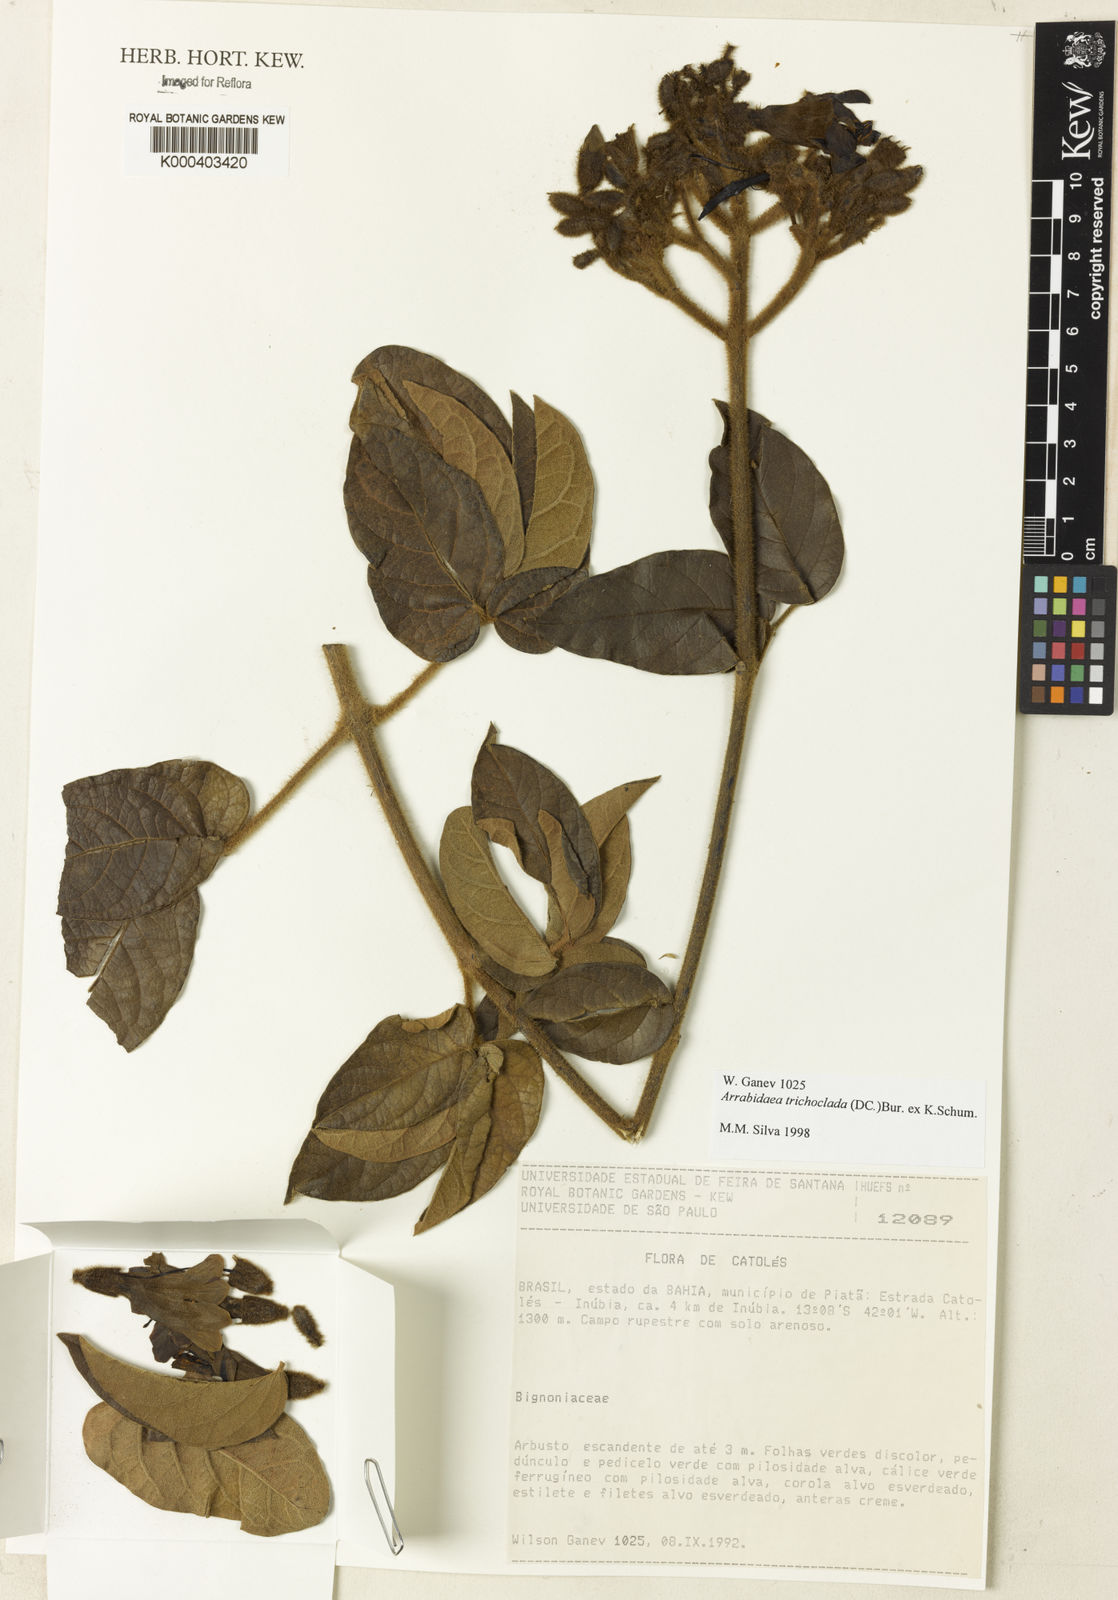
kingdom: Plantae
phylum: Tracheophyta
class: Magnoliopsida
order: Lamiales
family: Bignoniaceae
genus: Fridericia
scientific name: Fridericia trichoclada
